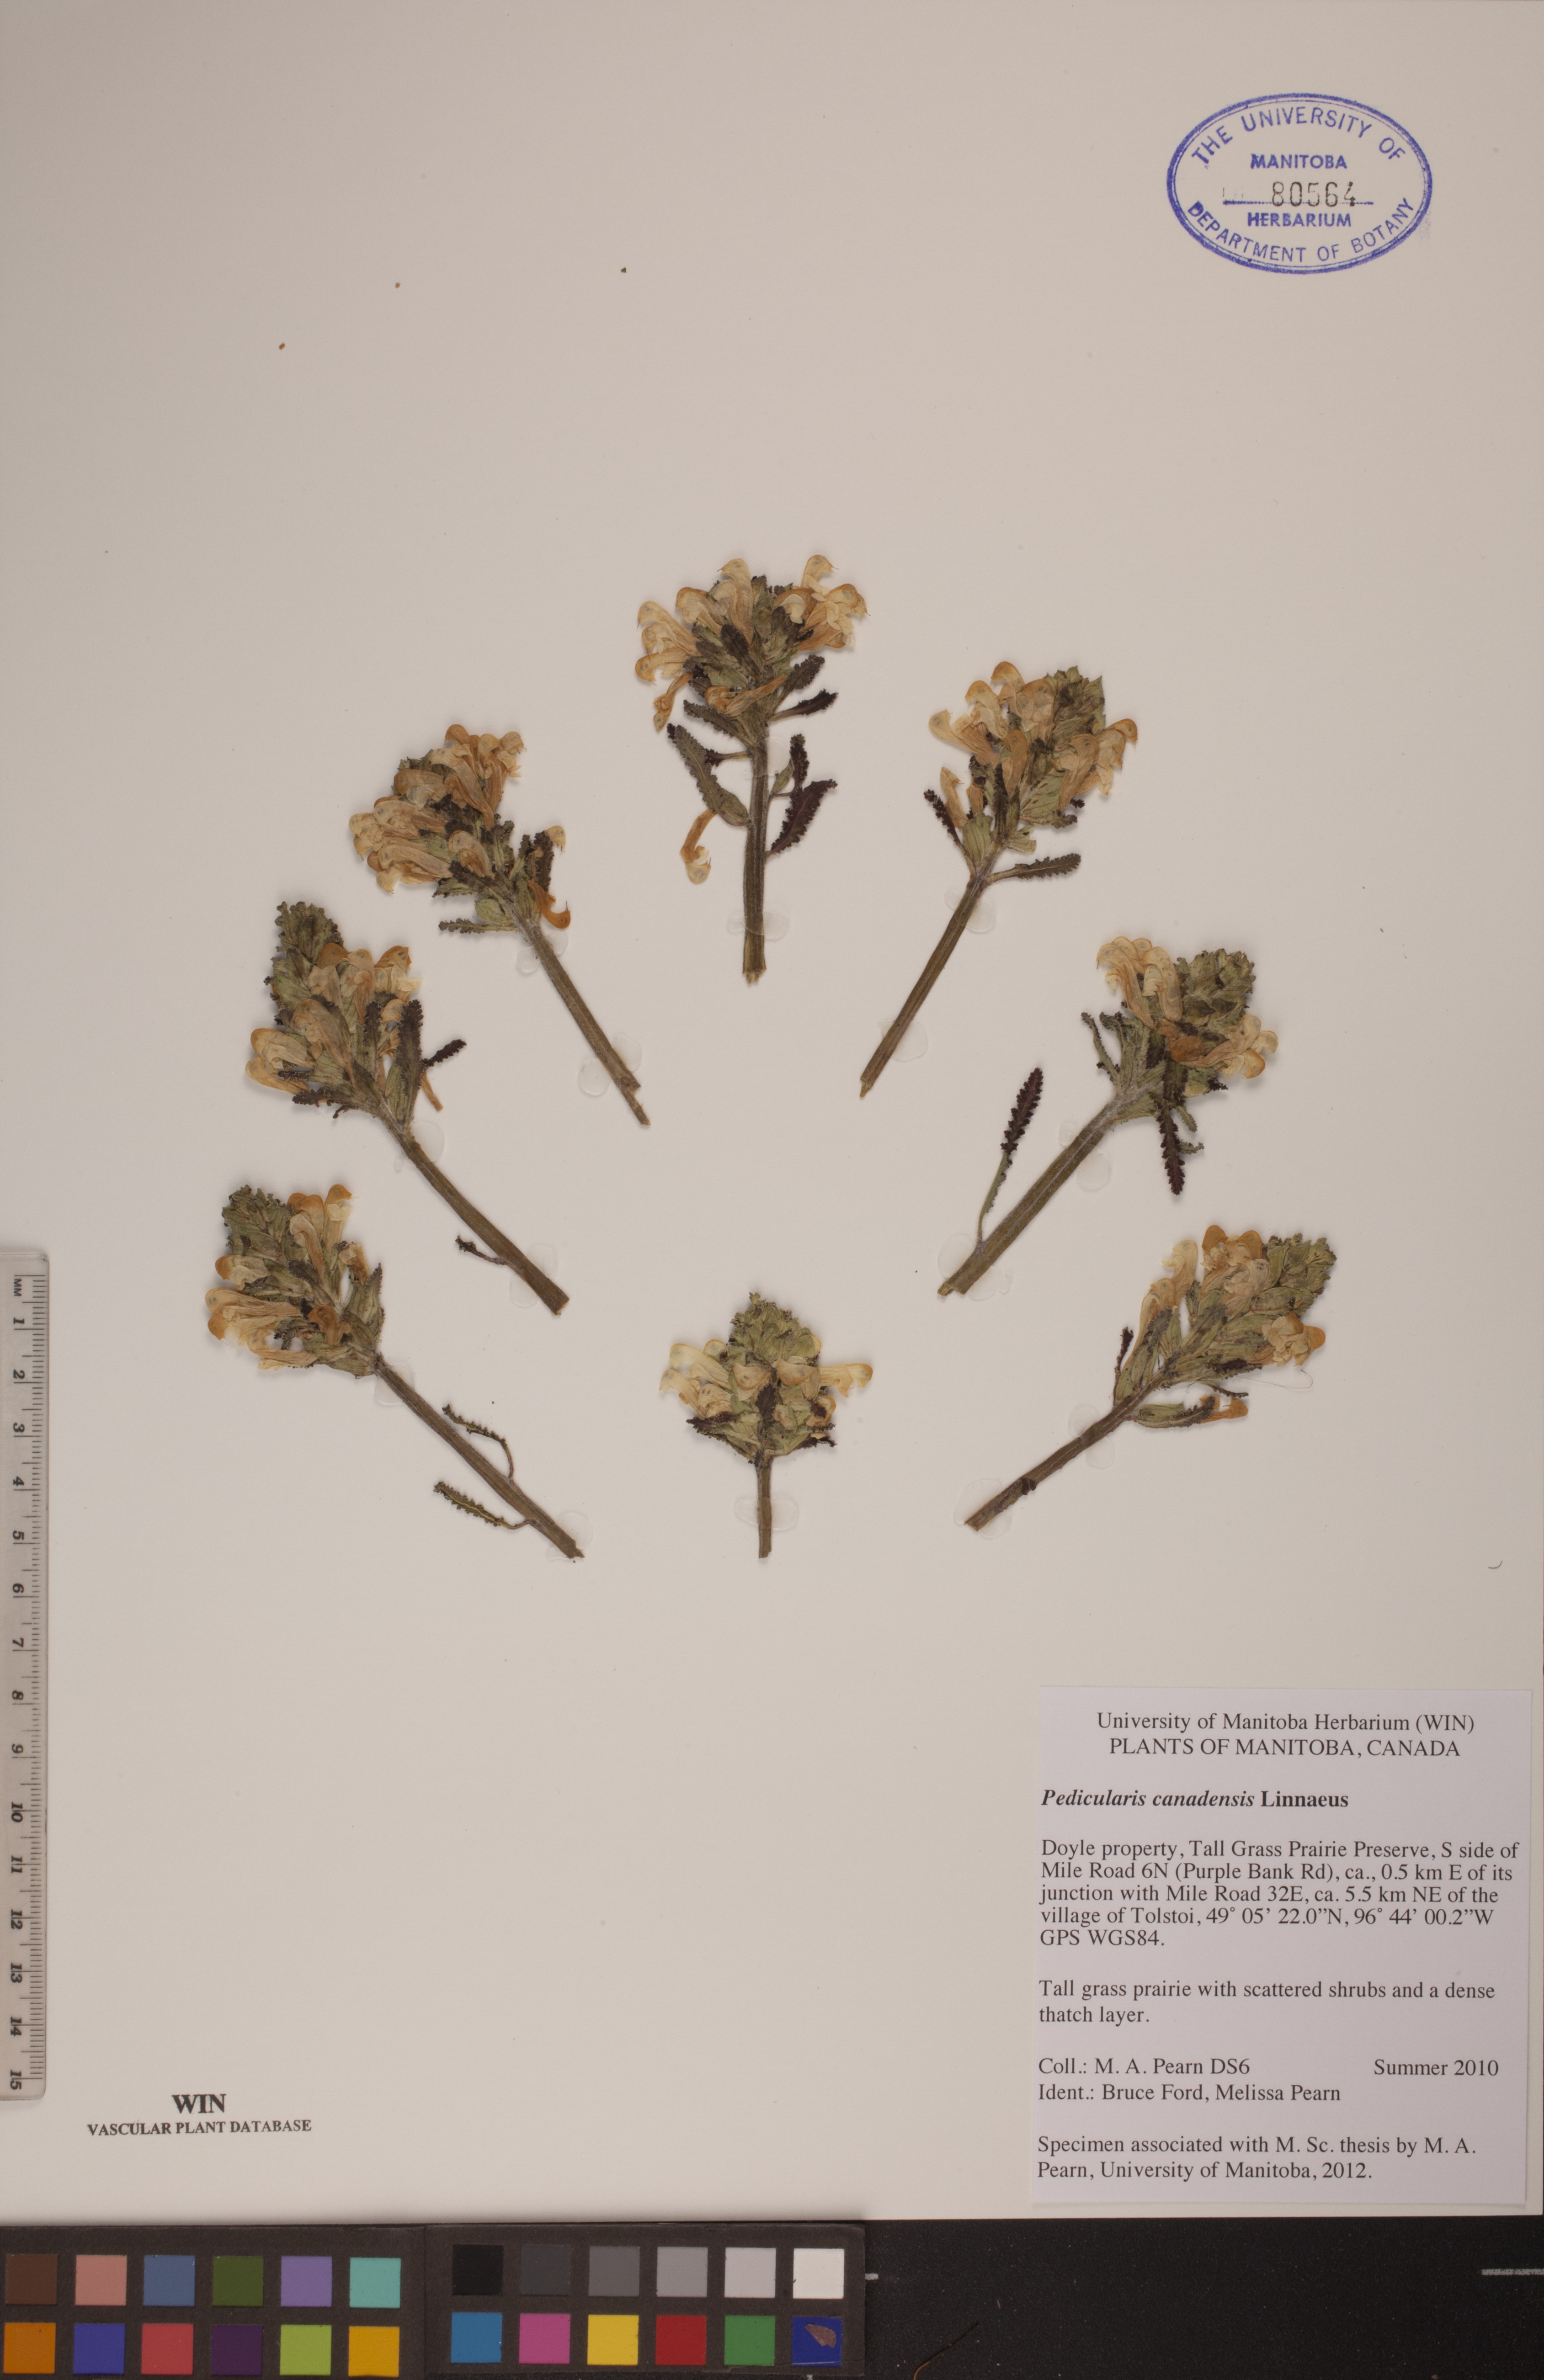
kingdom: Plantae
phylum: Tracheophyta
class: Magnoliopsida
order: Lamiales
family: Orobanchaceae
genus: Pedicularis
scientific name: Pedicularis canadensis
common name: Early lousewort
